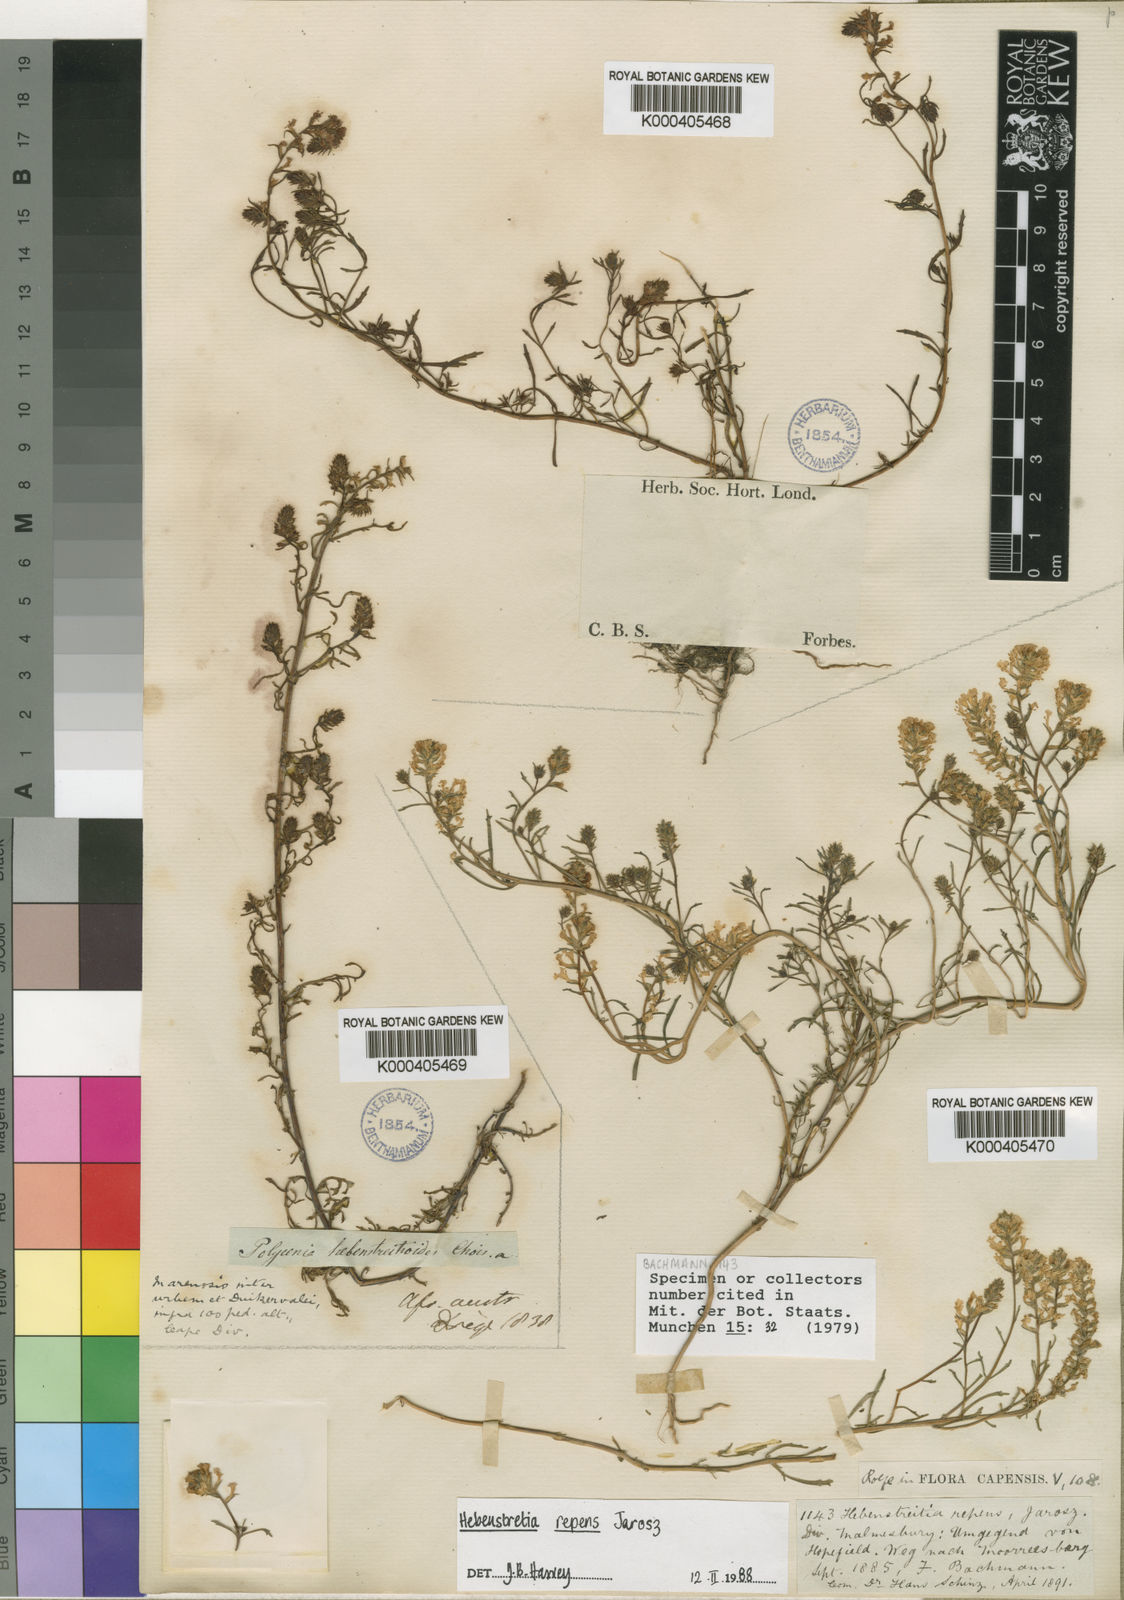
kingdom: Plantae
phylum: Tracheophyta
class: Magnoliopsida
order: Lamiales
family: Scrophulariaceae
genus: Hebenstretia
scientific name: Hebenstretia repens
